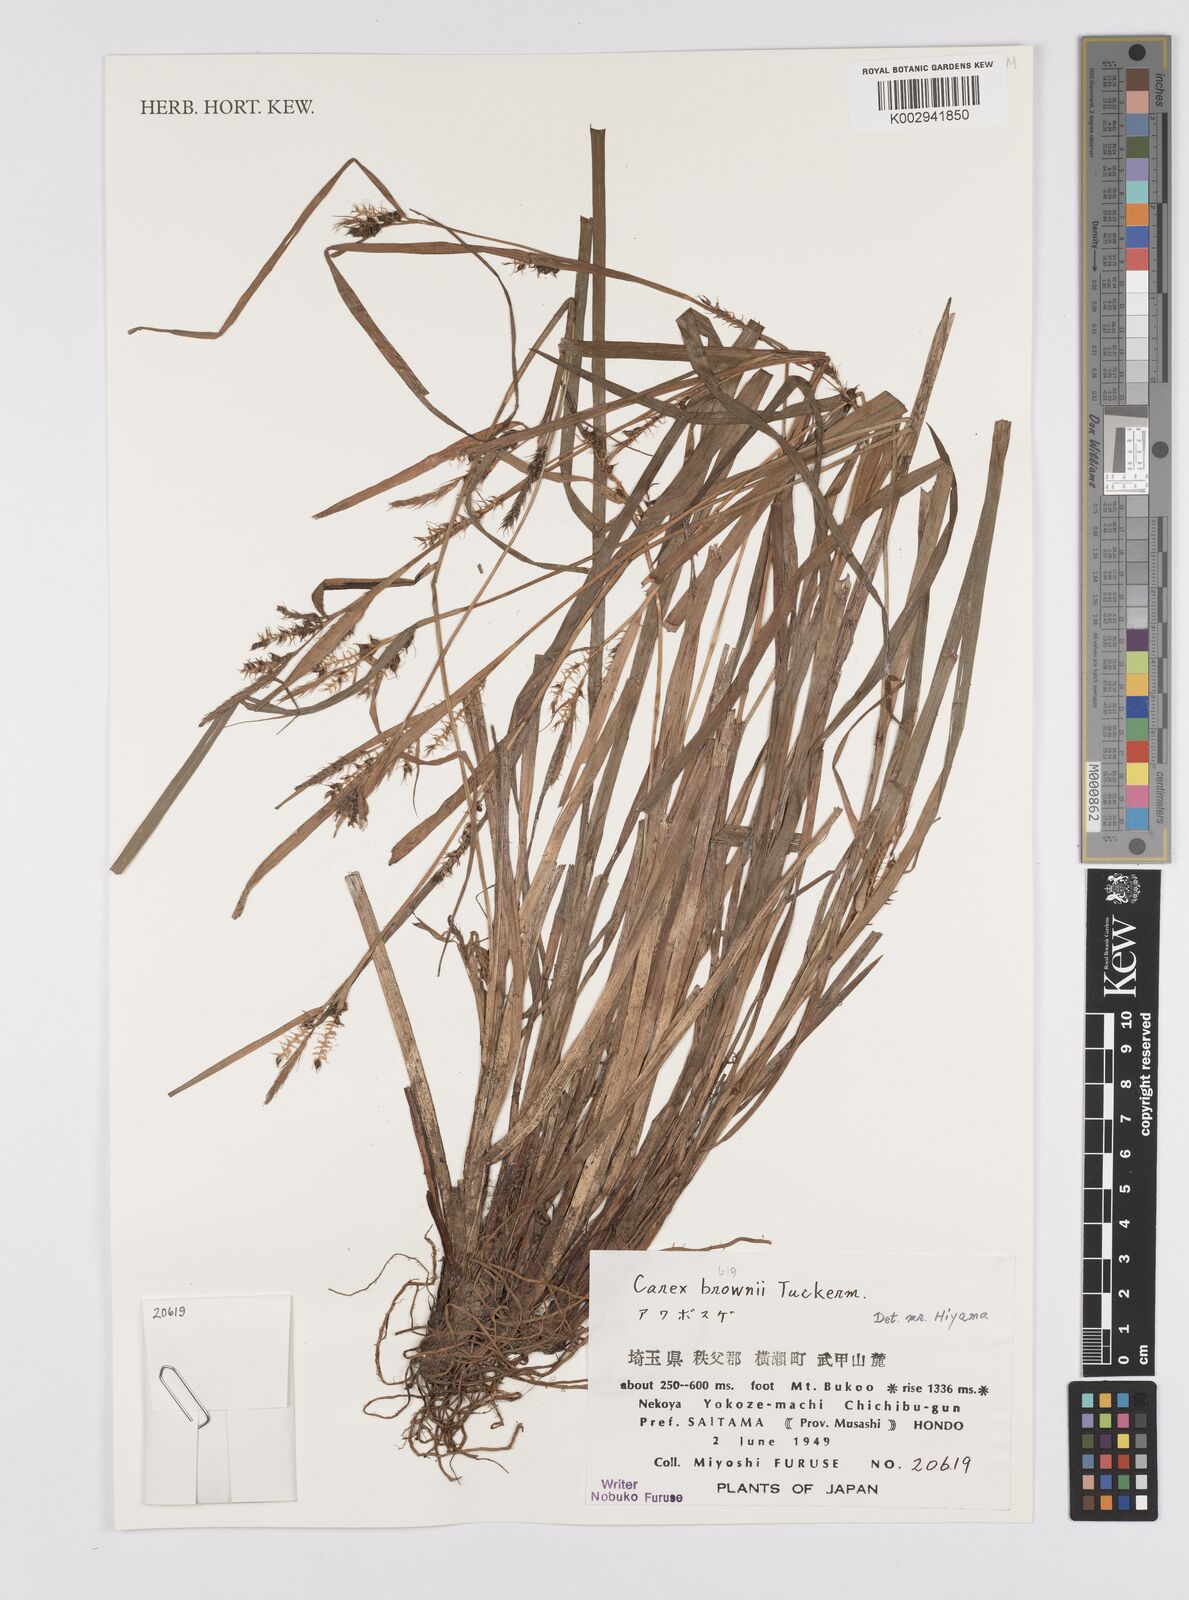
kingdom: Plantae
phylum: Tracheophyta
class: Liliopsida
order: Poales
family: Cyperaceae
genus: Carex
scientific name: Carex brownii
